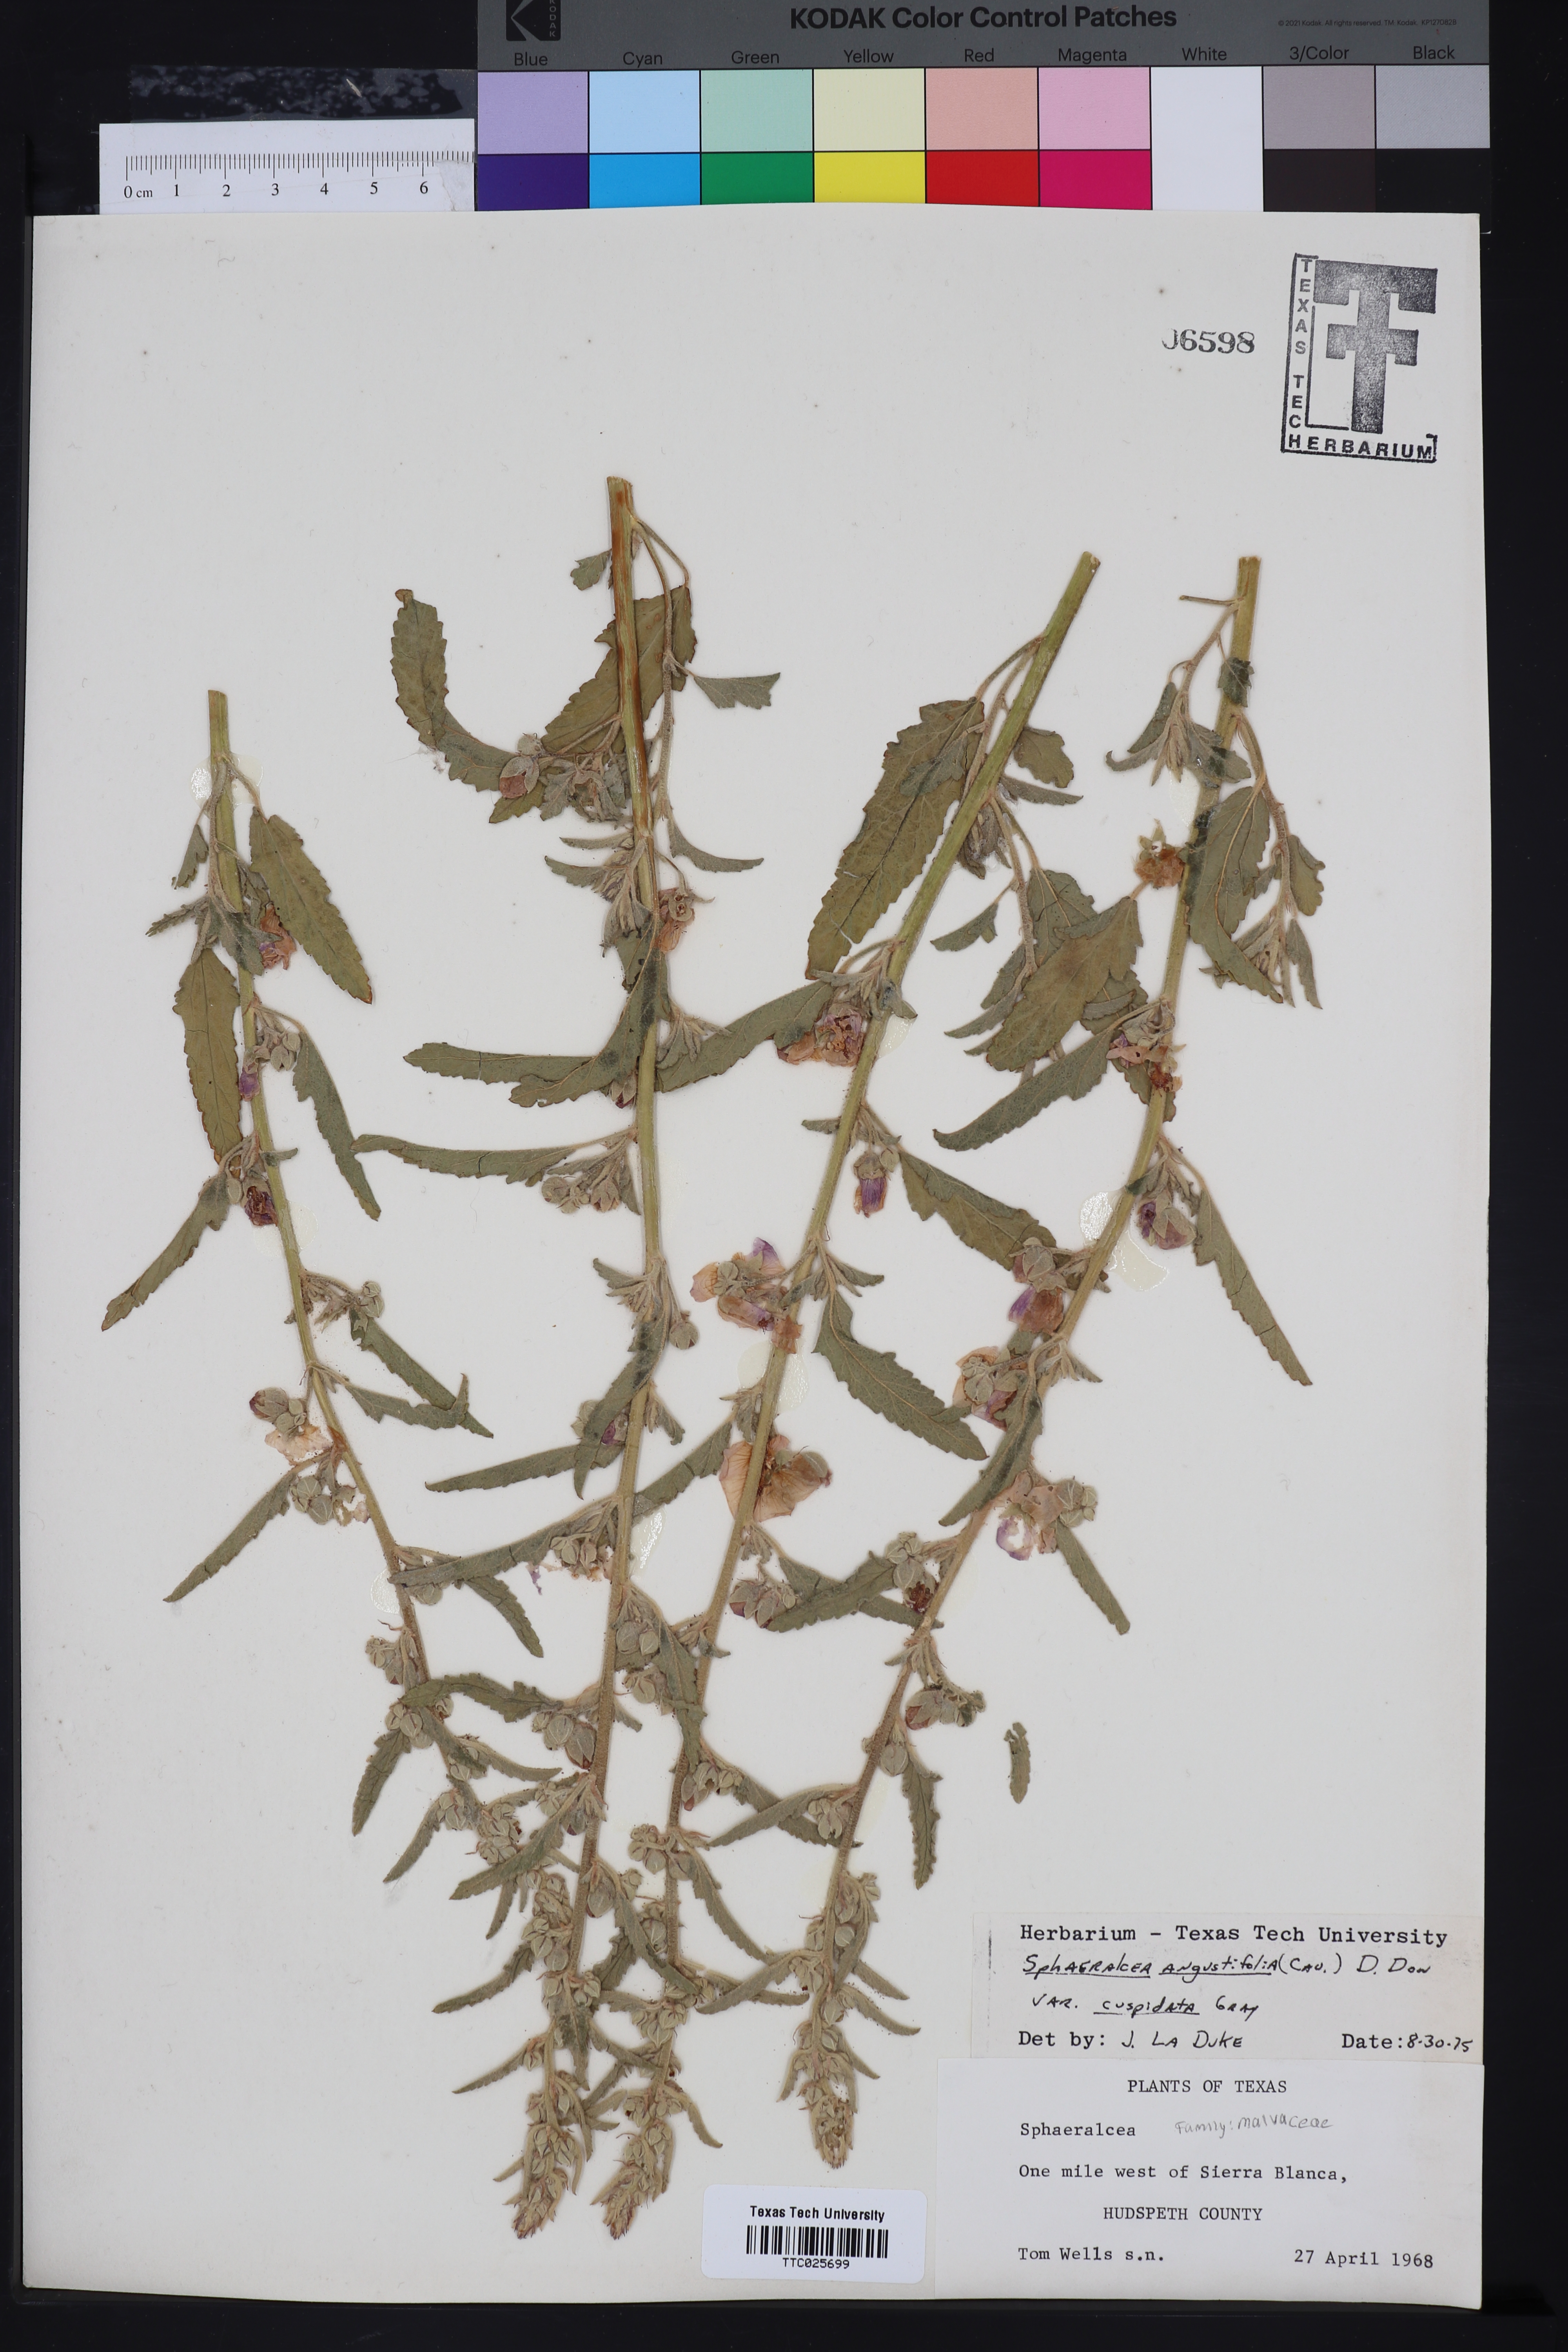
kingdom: Plantae
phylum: Tracheophyta
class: Magnoliopsida
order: Malvales
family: Malvaceae
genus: Sphaeralcea
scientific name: Sphaeralcea angustifolia
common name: Copper globe-mallow
